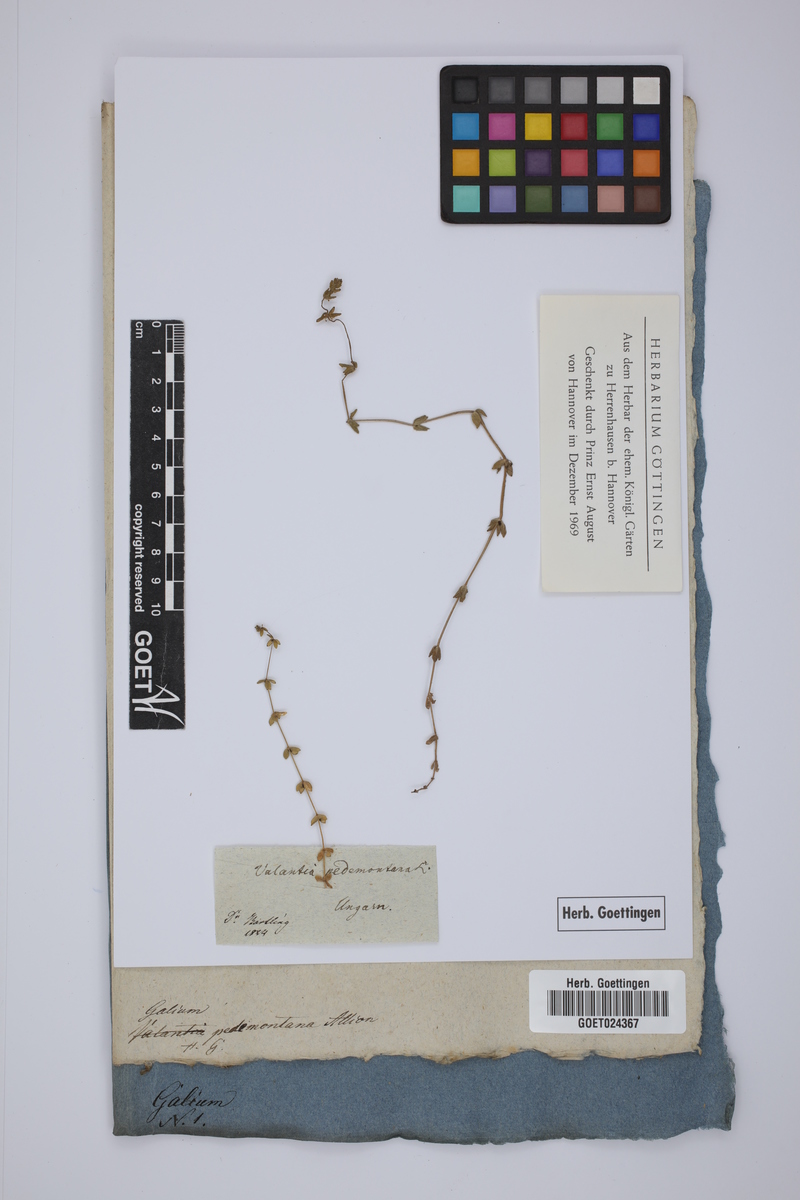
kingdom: Plantae
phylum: Tracheophyta
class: Magnoliopsida
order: Gentianales
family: Rubiaceae
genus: Cruciata
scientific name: Cruciata pedemontana
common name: Piedmont bedstraw
